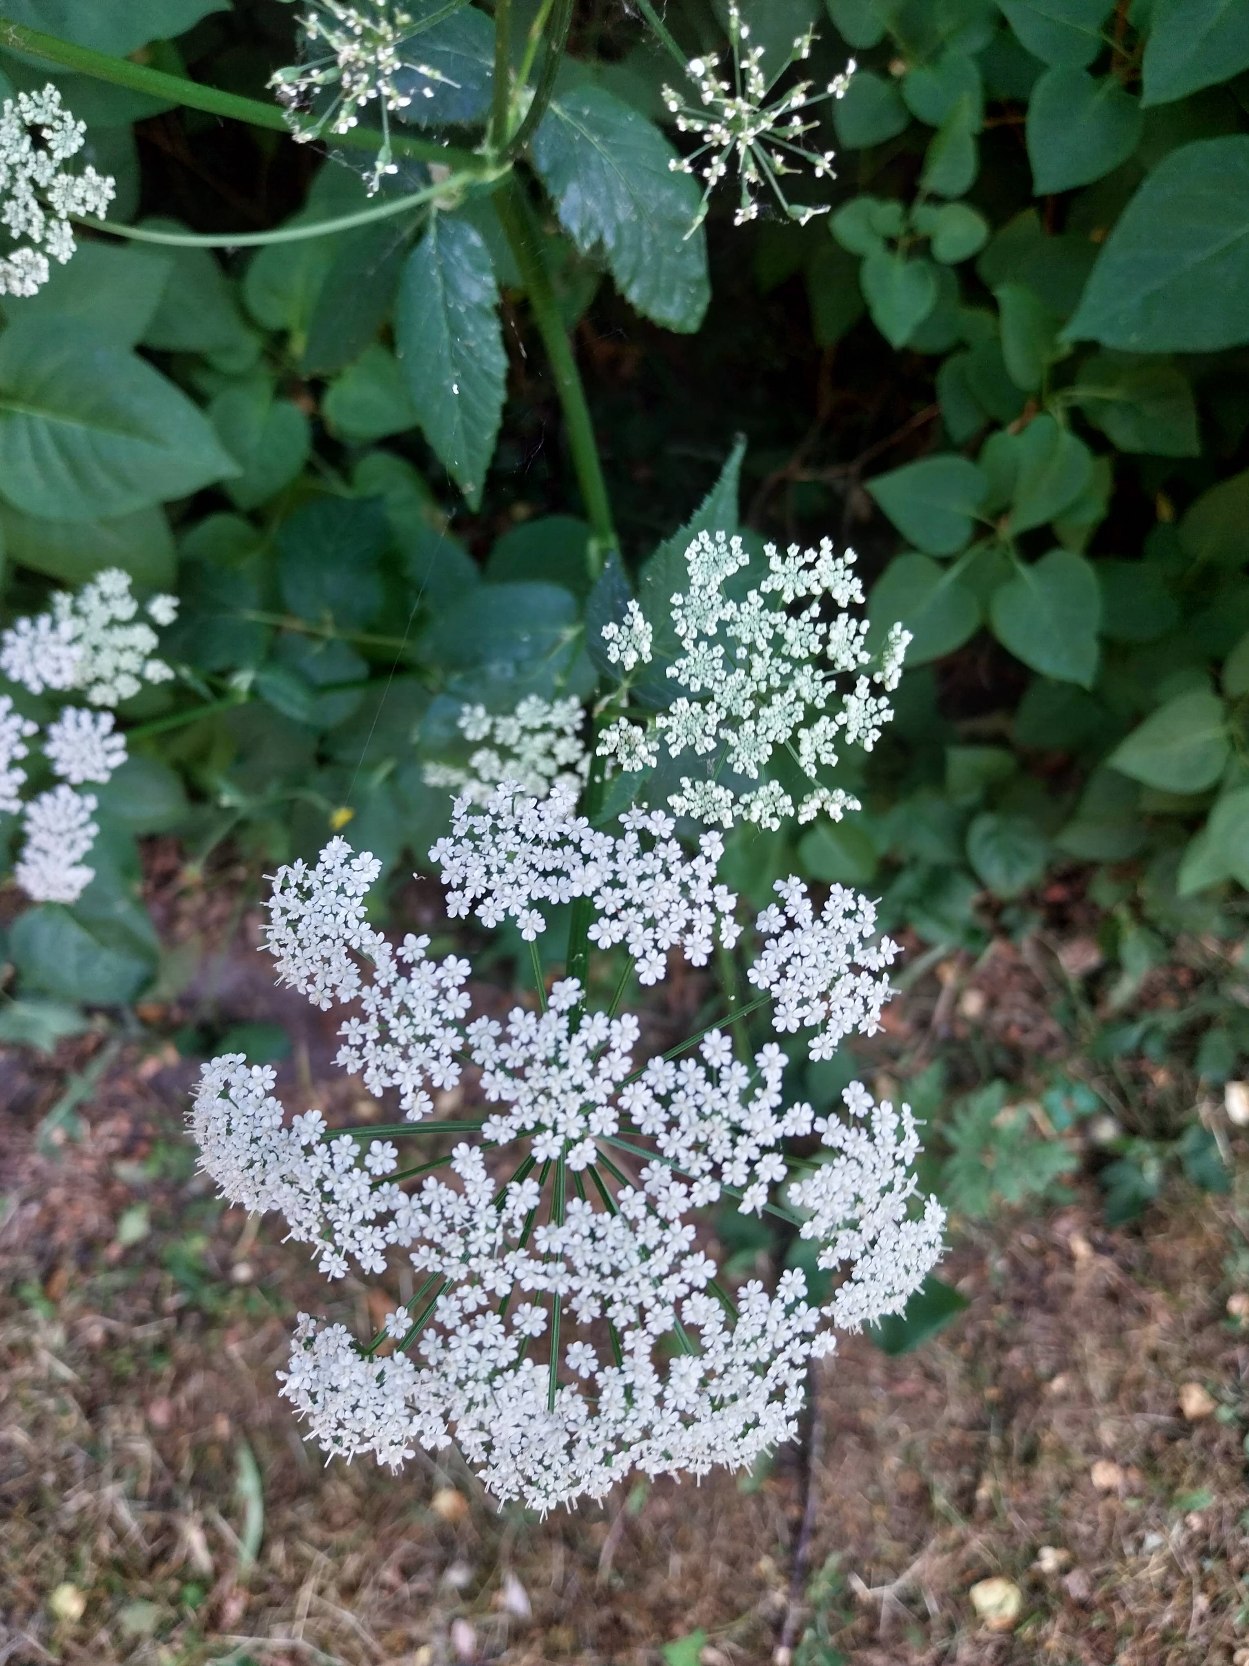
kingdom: Plantae
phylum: Tracheophyta
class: Magnoliopsida
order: Apiales
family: Apiaceae
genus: Aegopodium
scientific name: Aegopodium podagraria
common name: Skvalderkål
